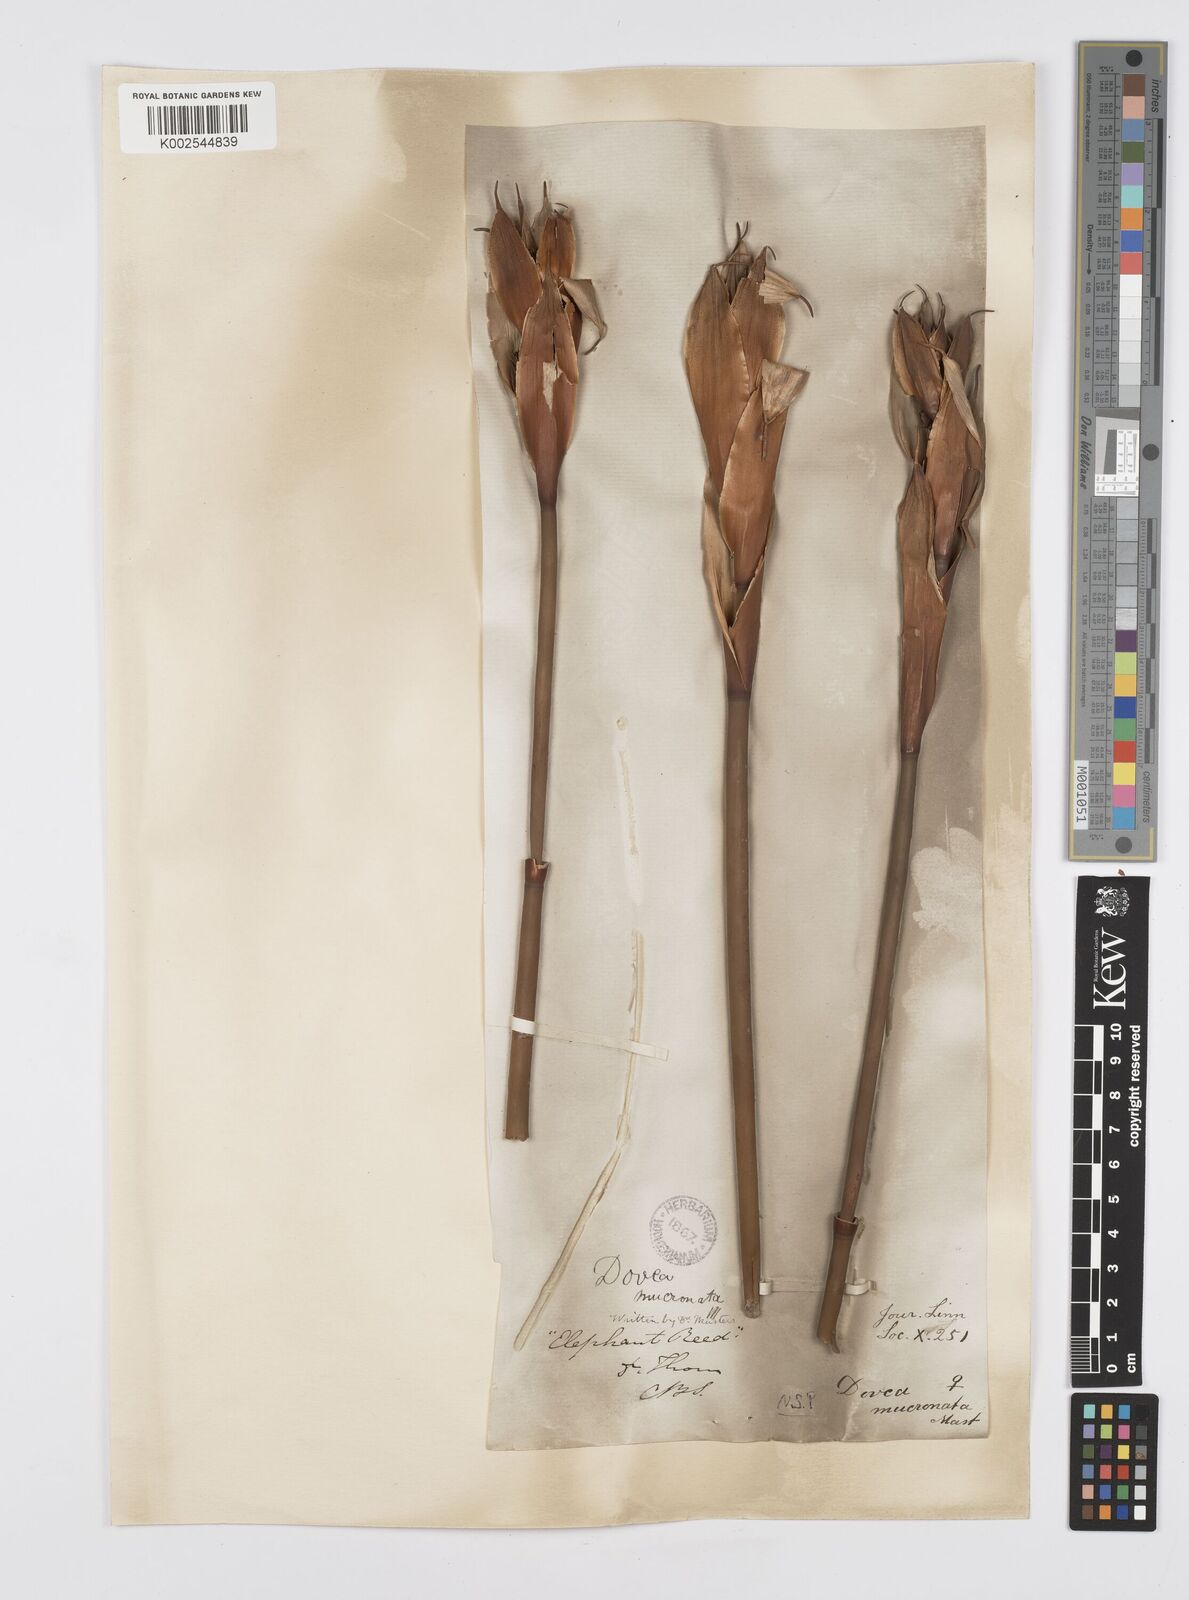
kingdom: Plantae
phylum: Tracheophyta
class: Liliopsida
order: Poales
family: Restionaceae
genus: Elegia
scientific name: Elegia mucronata
